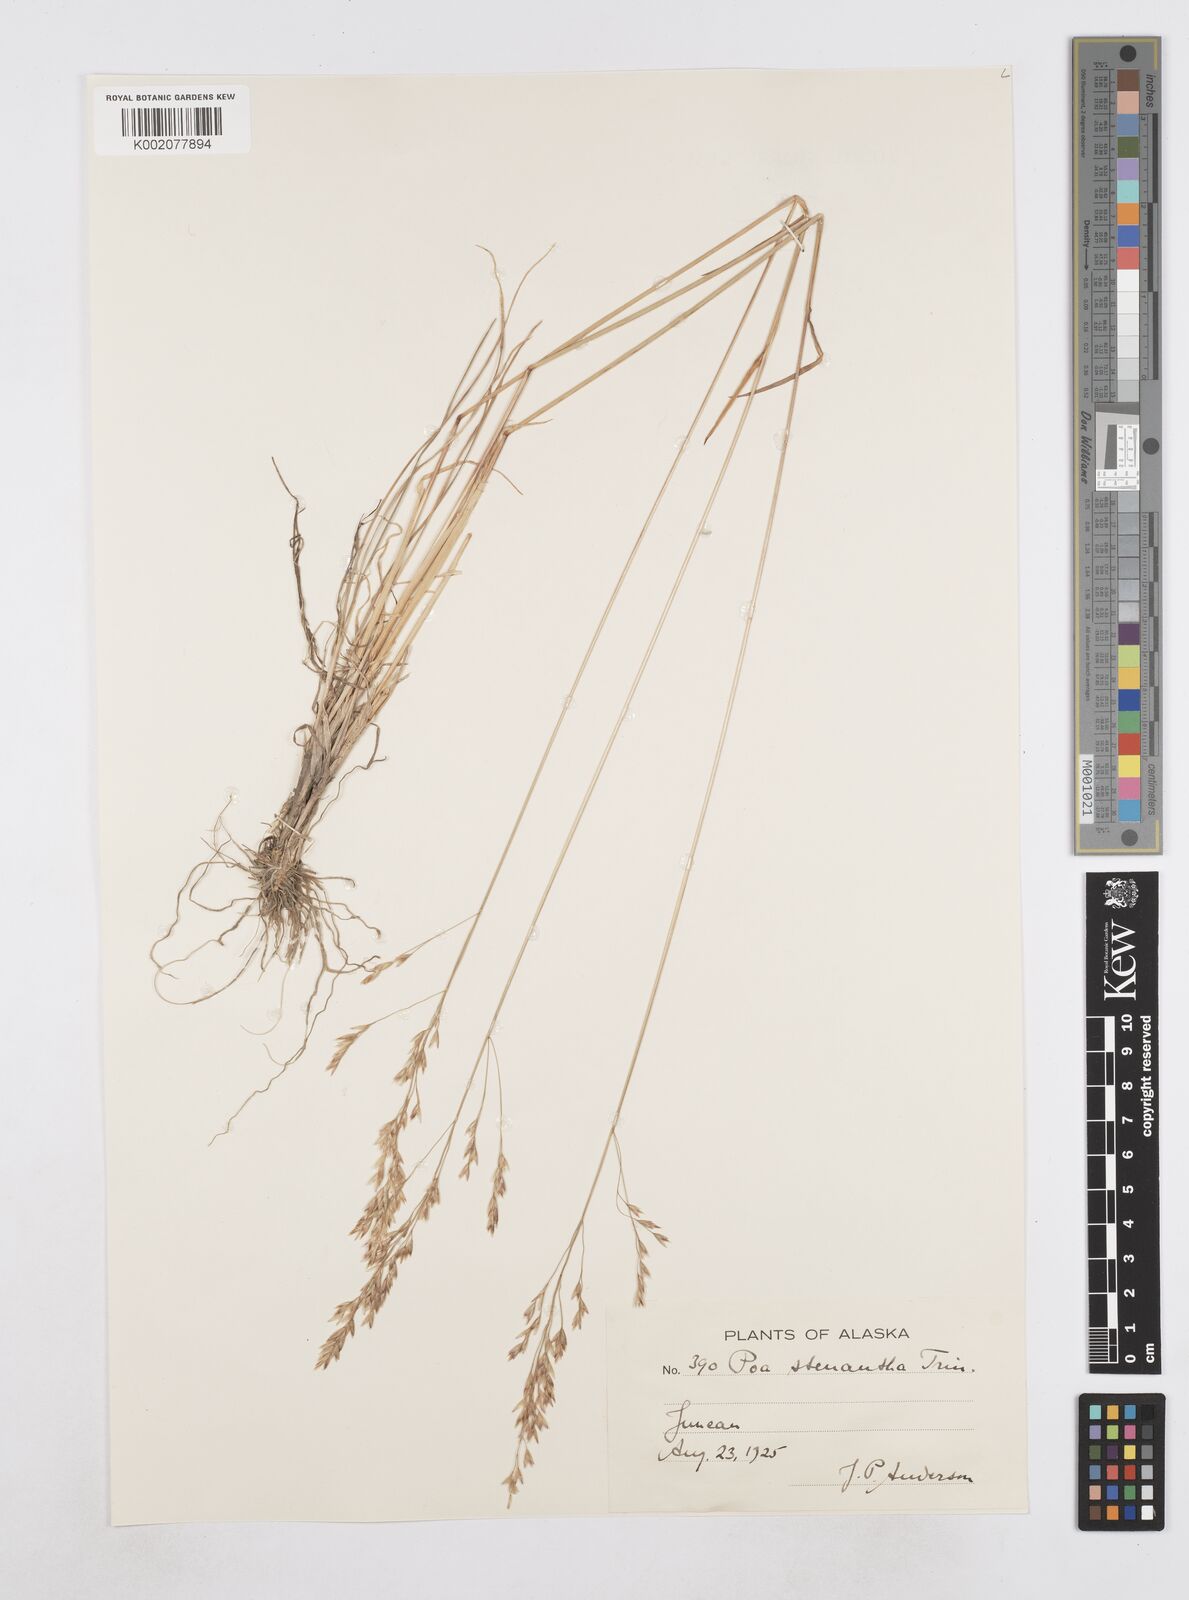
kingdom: Plantae
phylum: Tracheophyta
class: Liliopsida
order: Poales
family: Poaceae
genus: Poa
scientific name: Poa stenantha
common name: Narrow-flowered bluegrass
